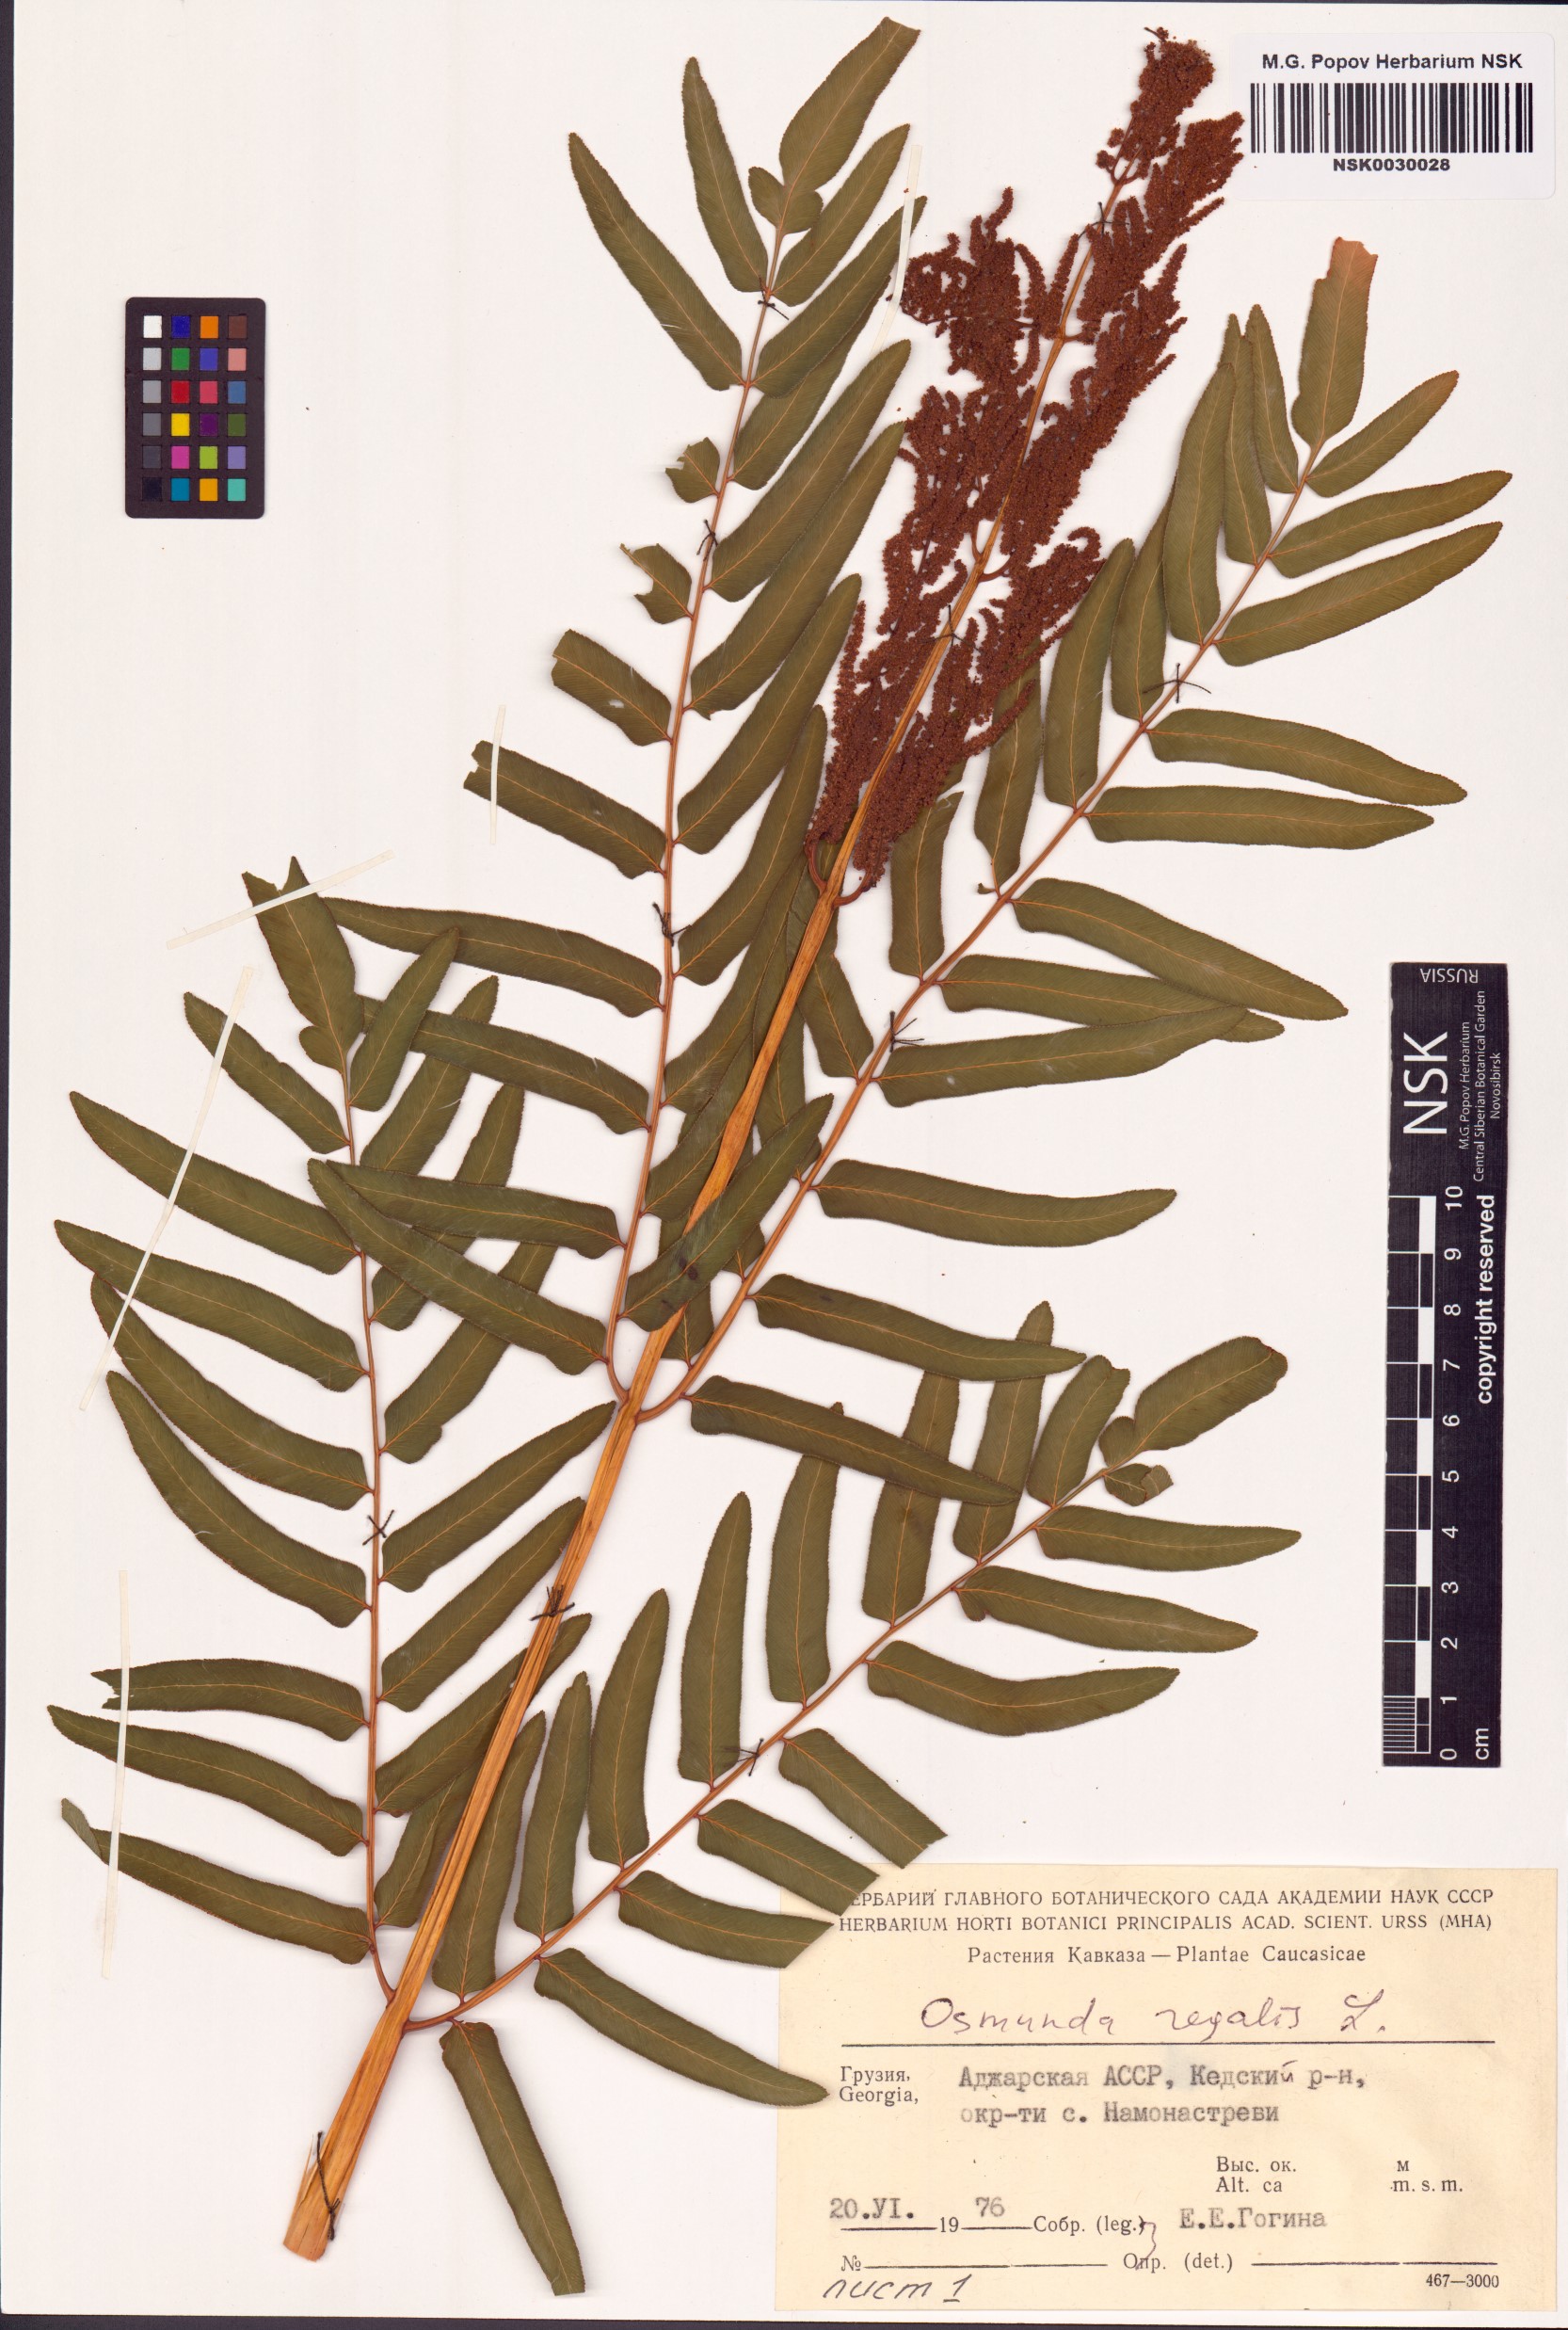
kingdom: Plantae
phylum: Tracheophyta
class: Polypodiopsida
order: Osmundales
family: Osmundaceae
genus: Osmunda
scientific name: Osmunda regalis
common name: Royal fern
